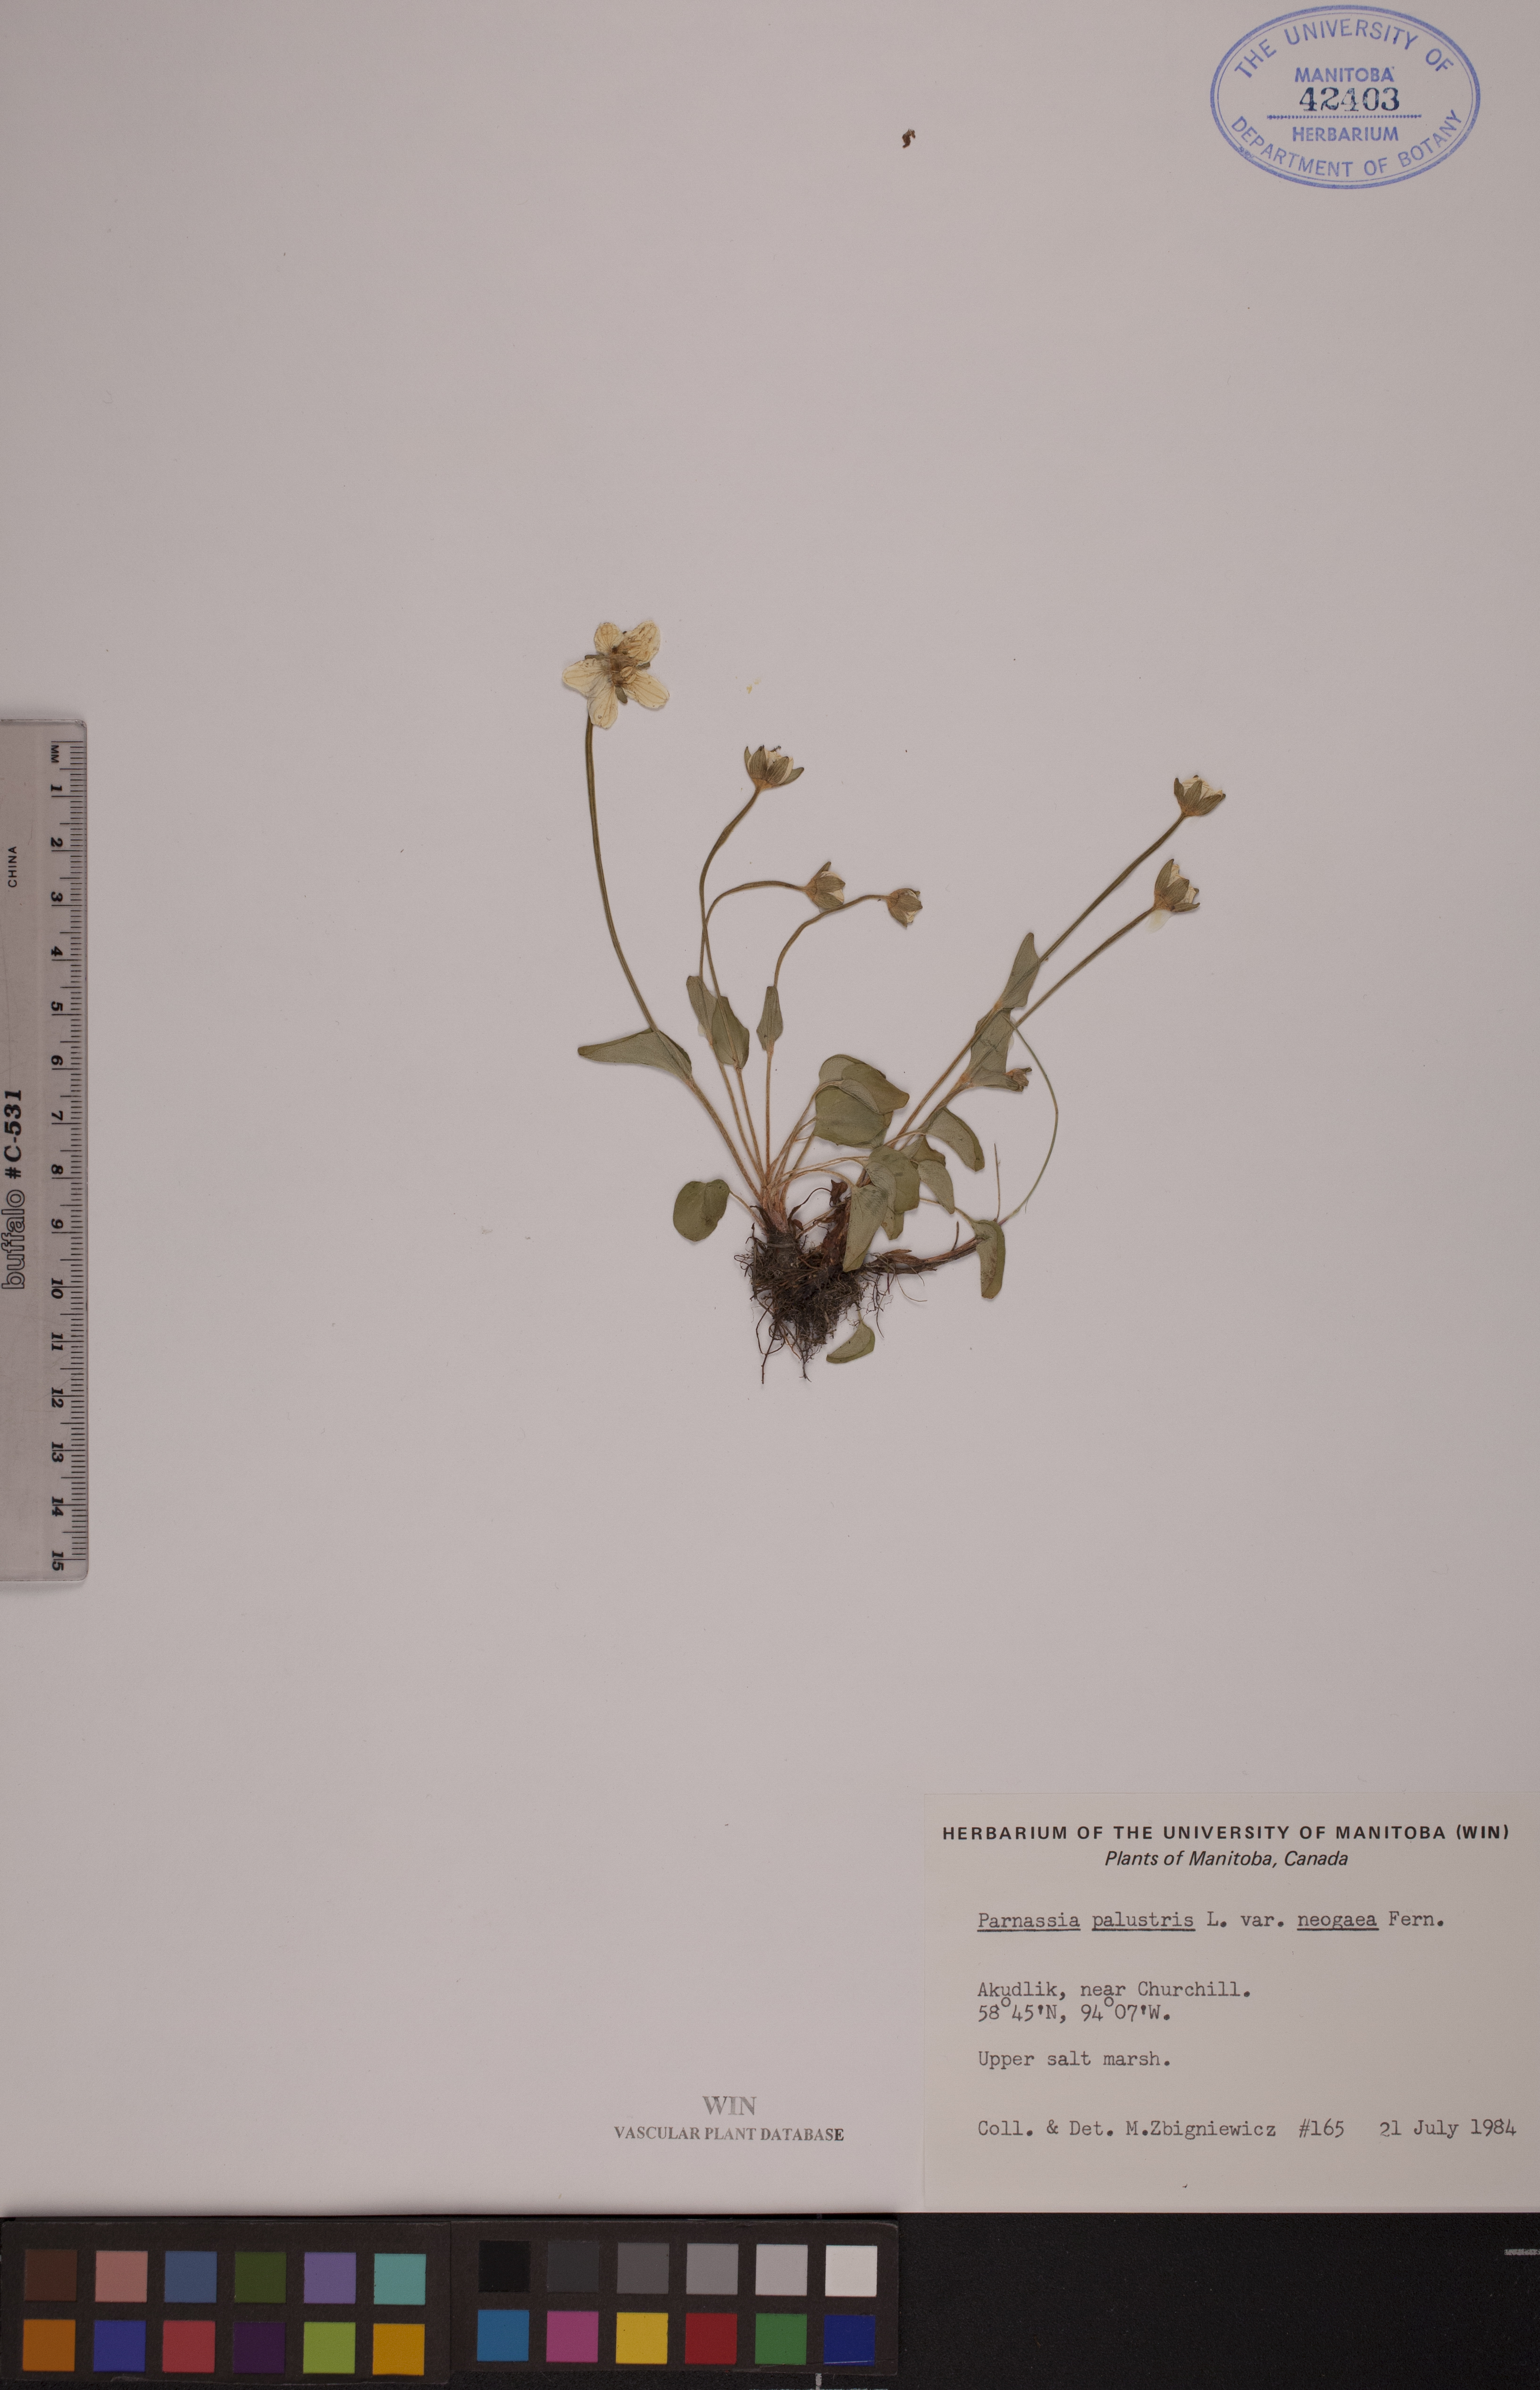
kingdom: Plantae
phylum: Tracheophyta
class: Magnoliopsida
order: Celastrales
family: Parnassiaceae
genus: Parnassia
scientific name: Parnassia palustris
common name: Grass-of-parnassus
